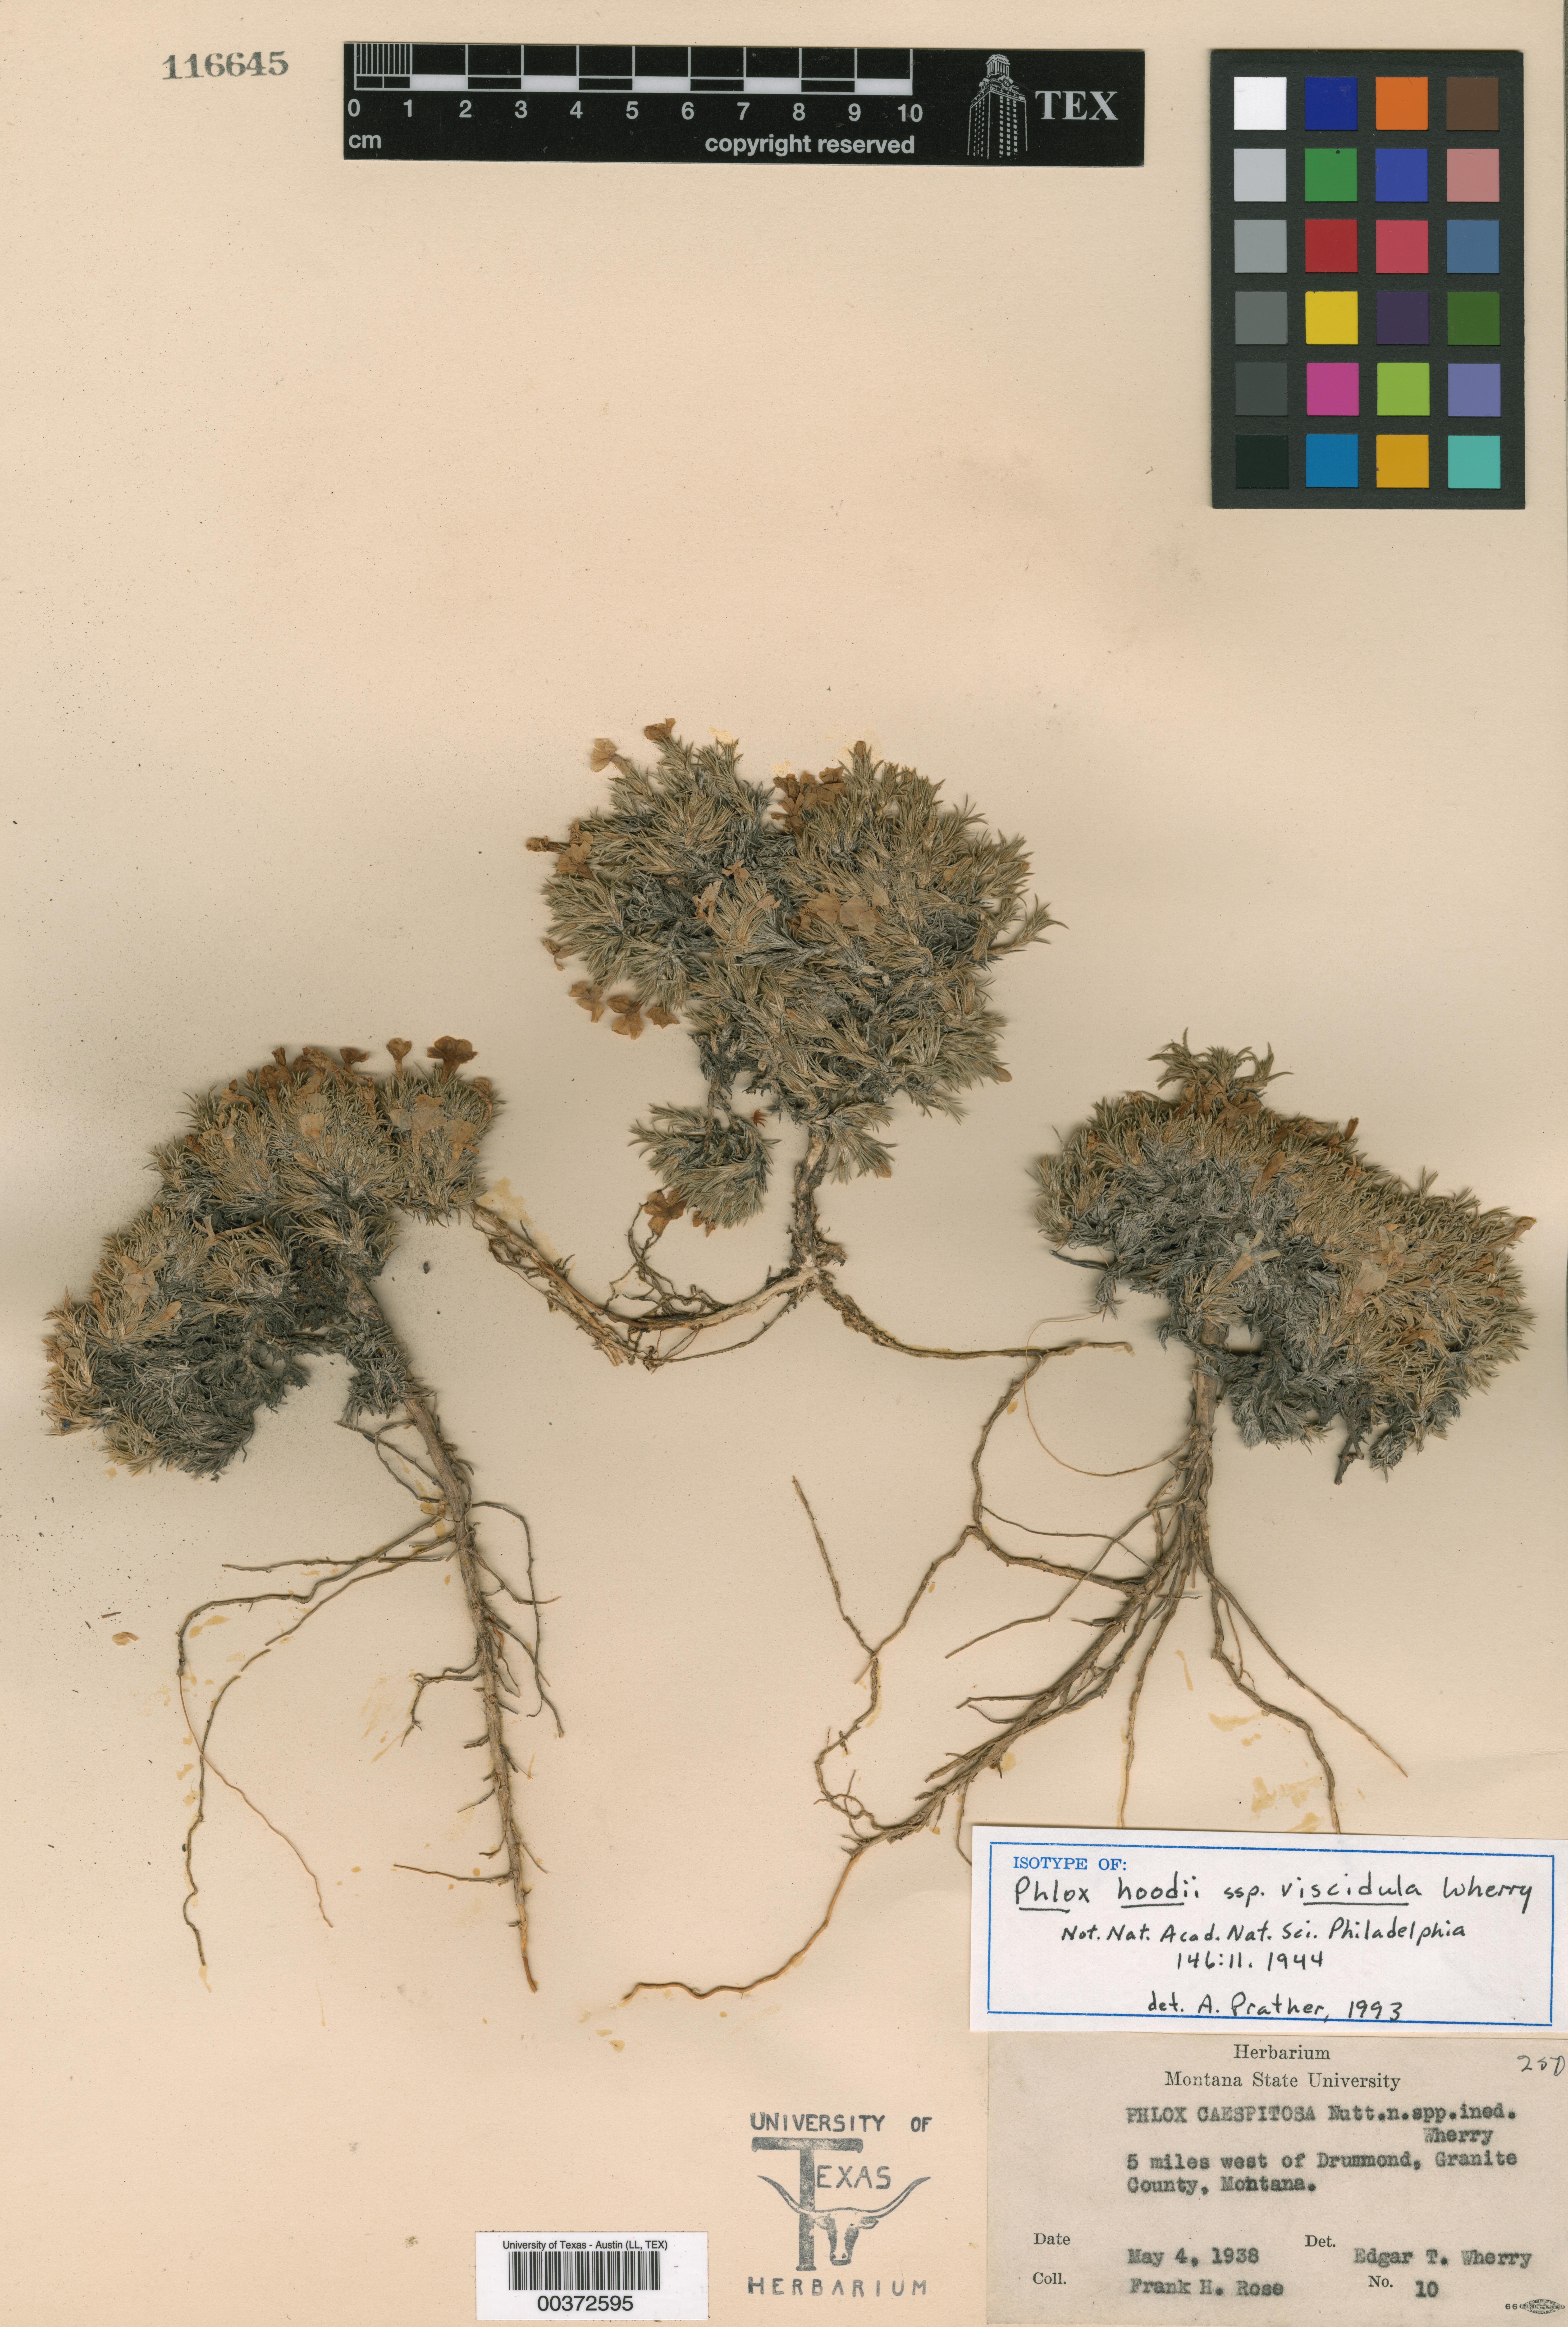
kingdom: Plantae
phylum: Tracheophyta
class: Magnoliopsida
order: Malpighiales
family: Hypericaceae
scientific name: Hypericaceae
